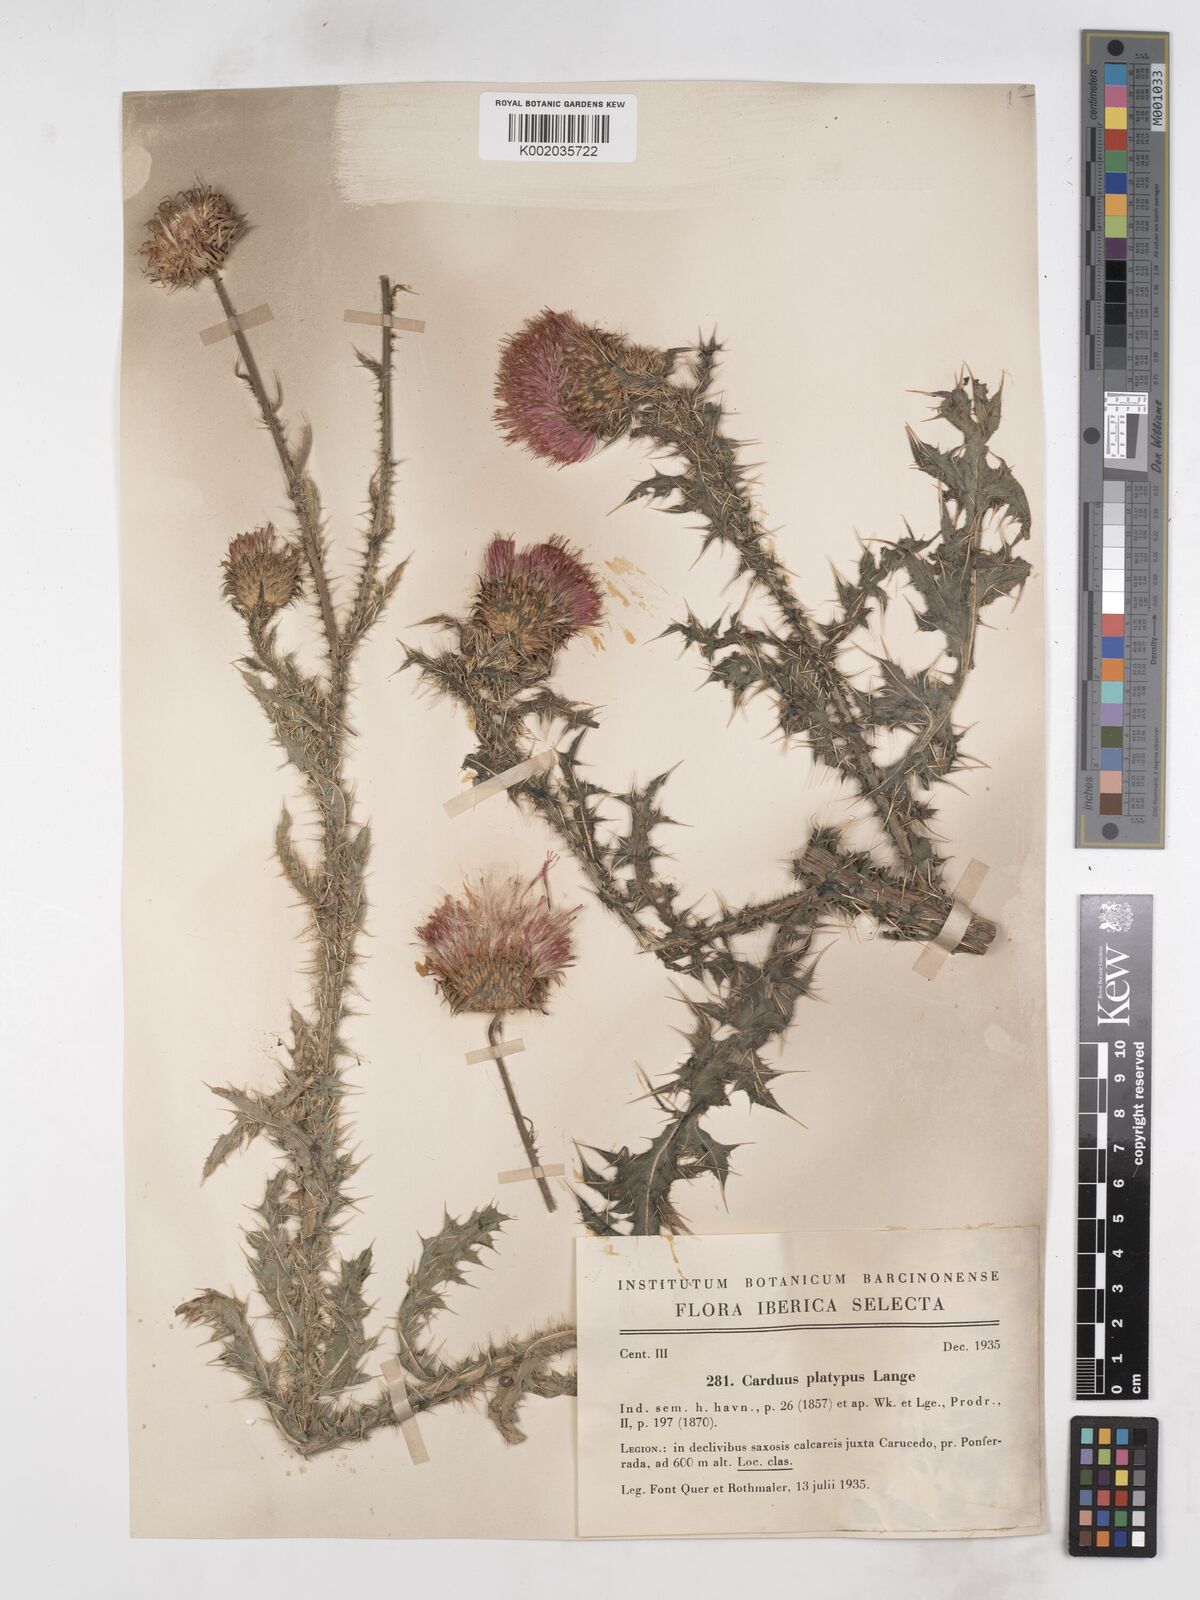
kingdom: Plantae
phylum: Tracheophyta
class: Magnoliopsida
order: Asterales
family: Asteraceae
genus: Carduus
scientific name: Carduus platypus
